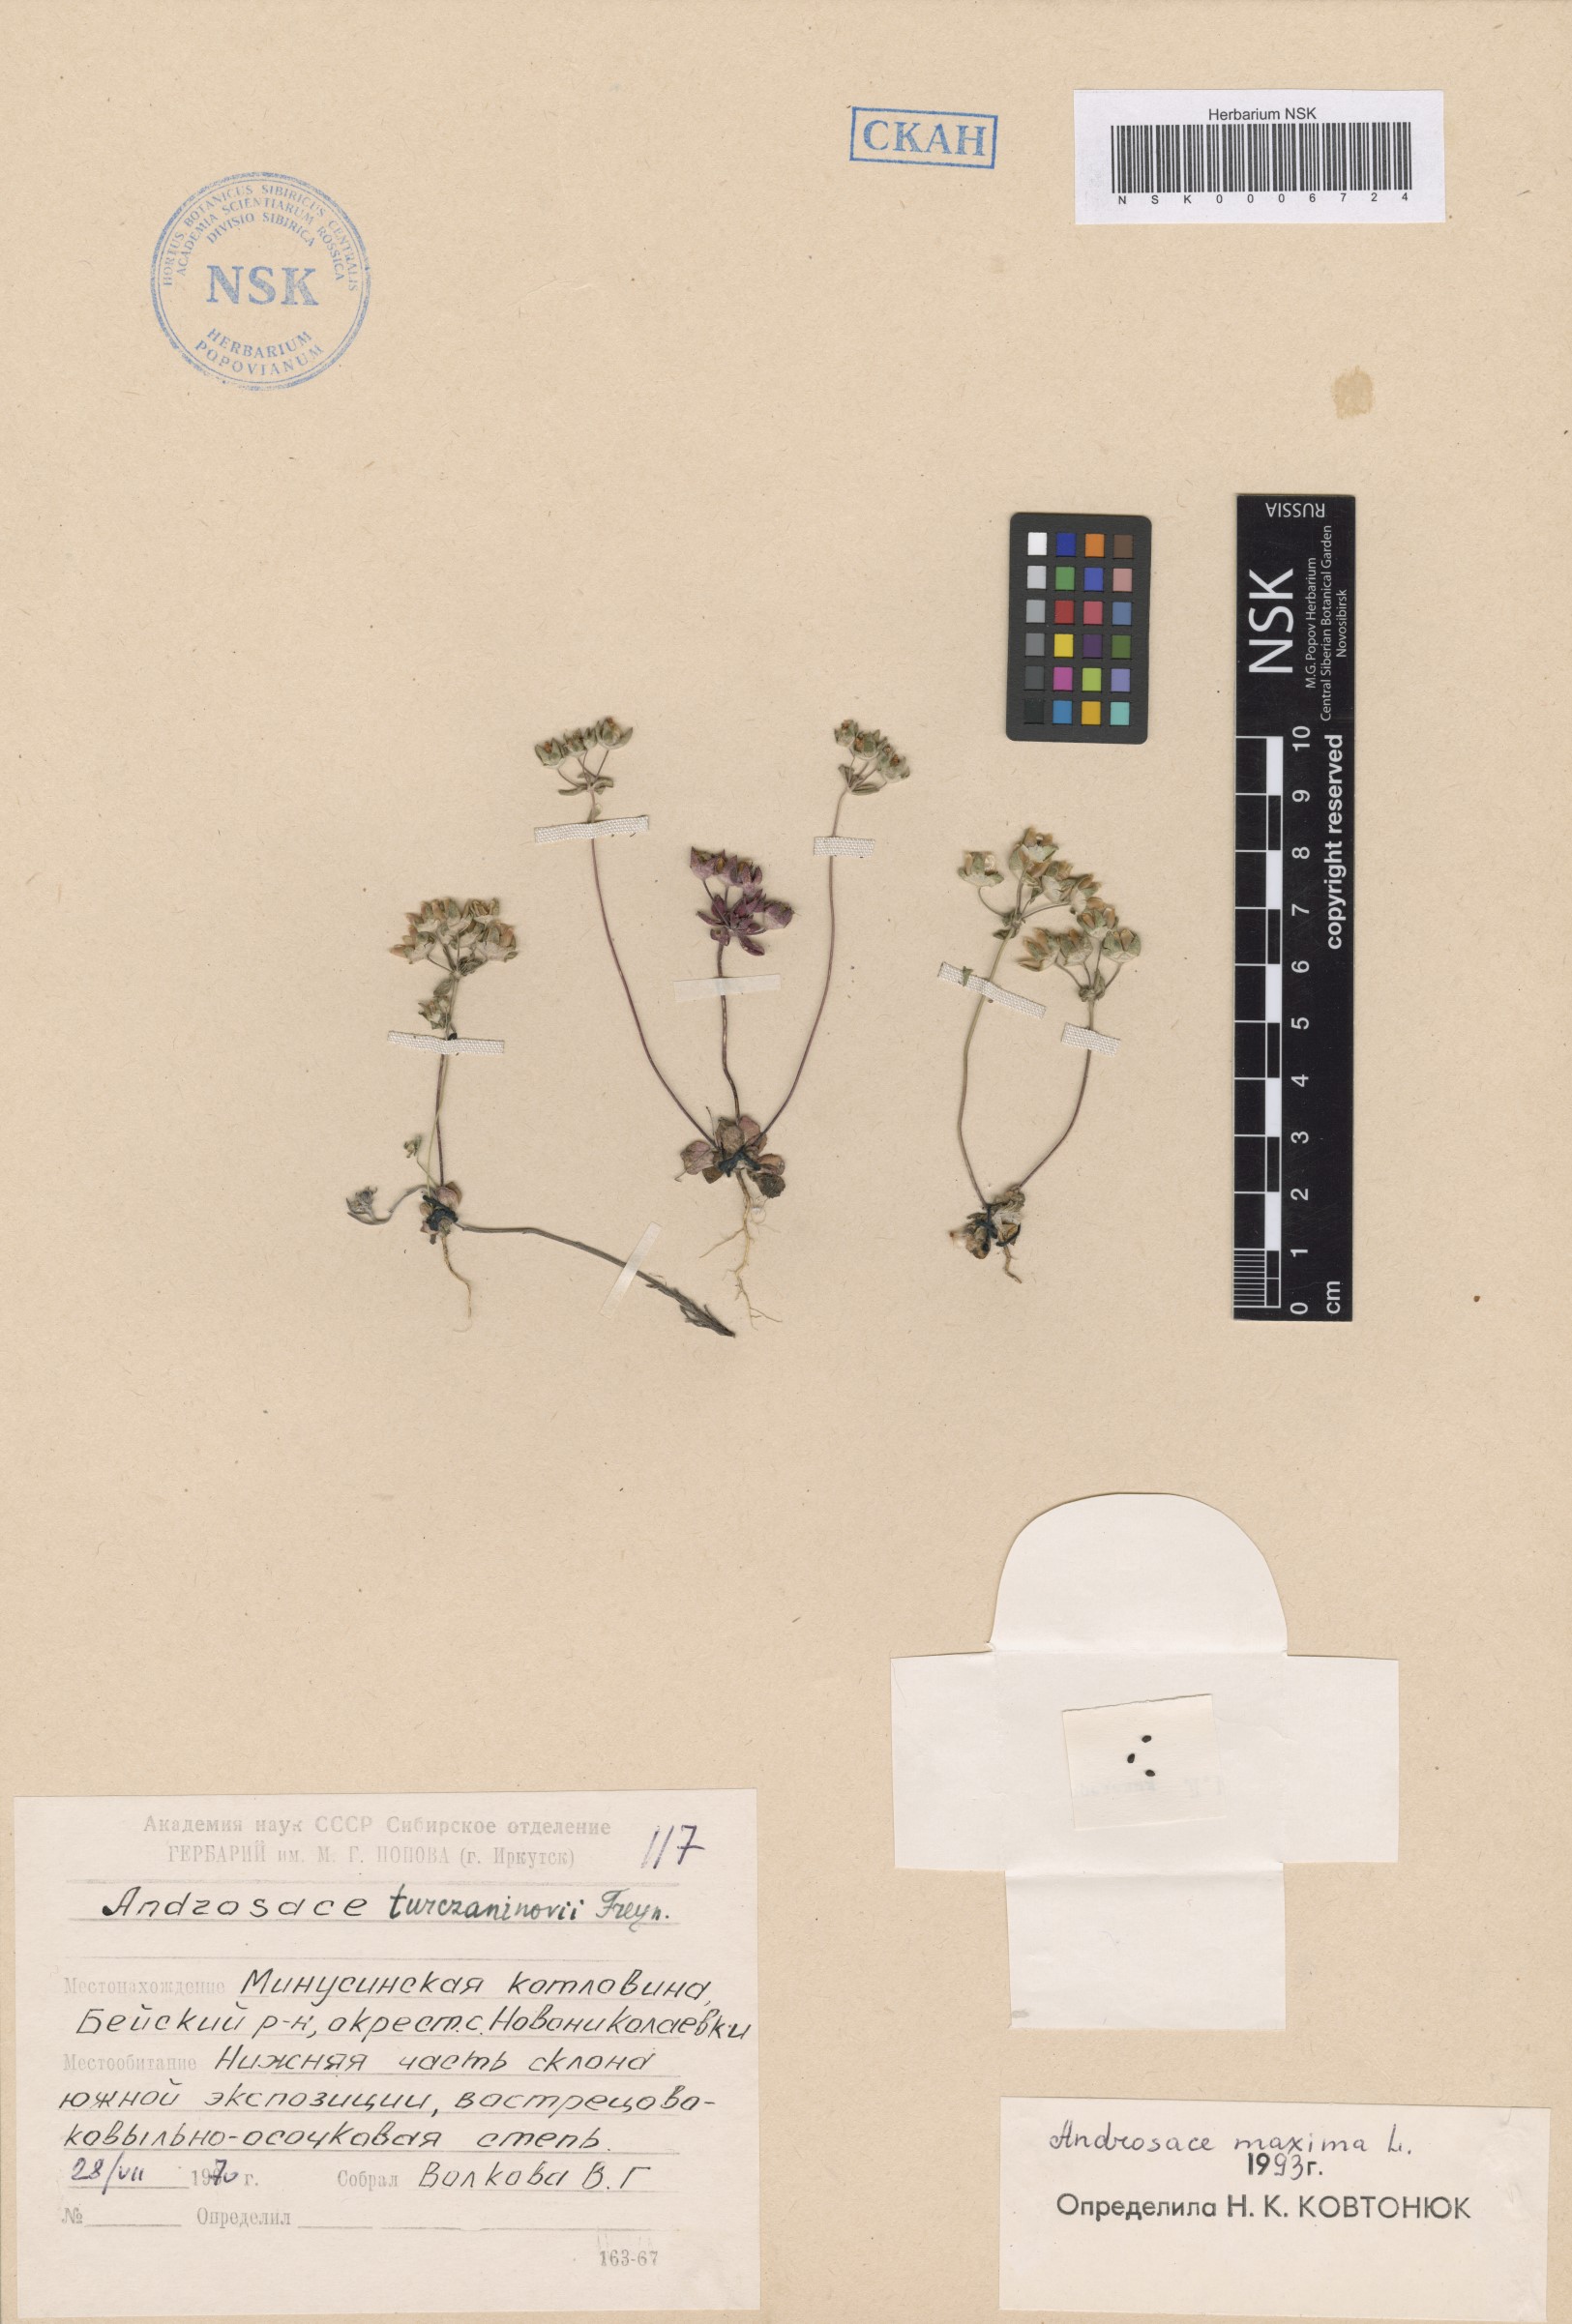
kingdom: Plantae
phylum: Tracheophyta
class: Magnoliopsida
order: Ericales
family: Primulaceae
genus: Androsace
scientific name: Androsace maxima
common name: Annual androsace
